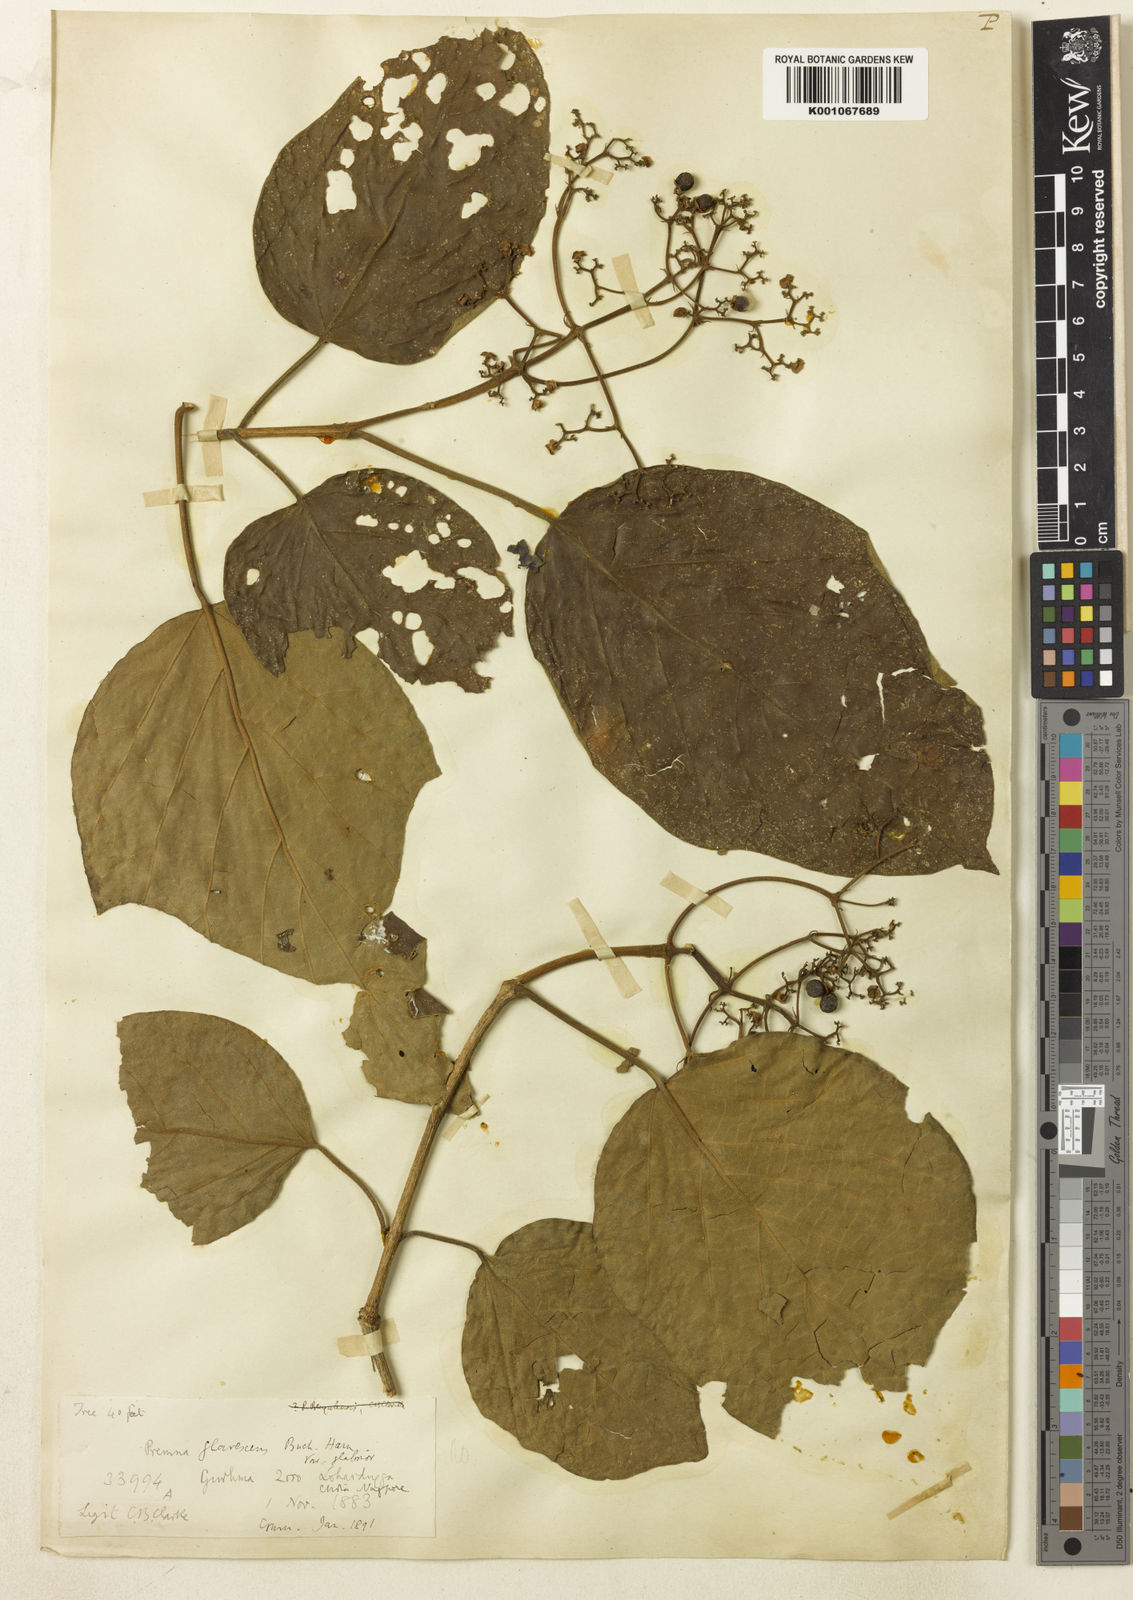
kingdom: Plantae
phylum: Tracheophyta
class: Magnoliopsida
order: Lamiales
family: Lamiaceae
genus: Premna
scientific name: Premna
